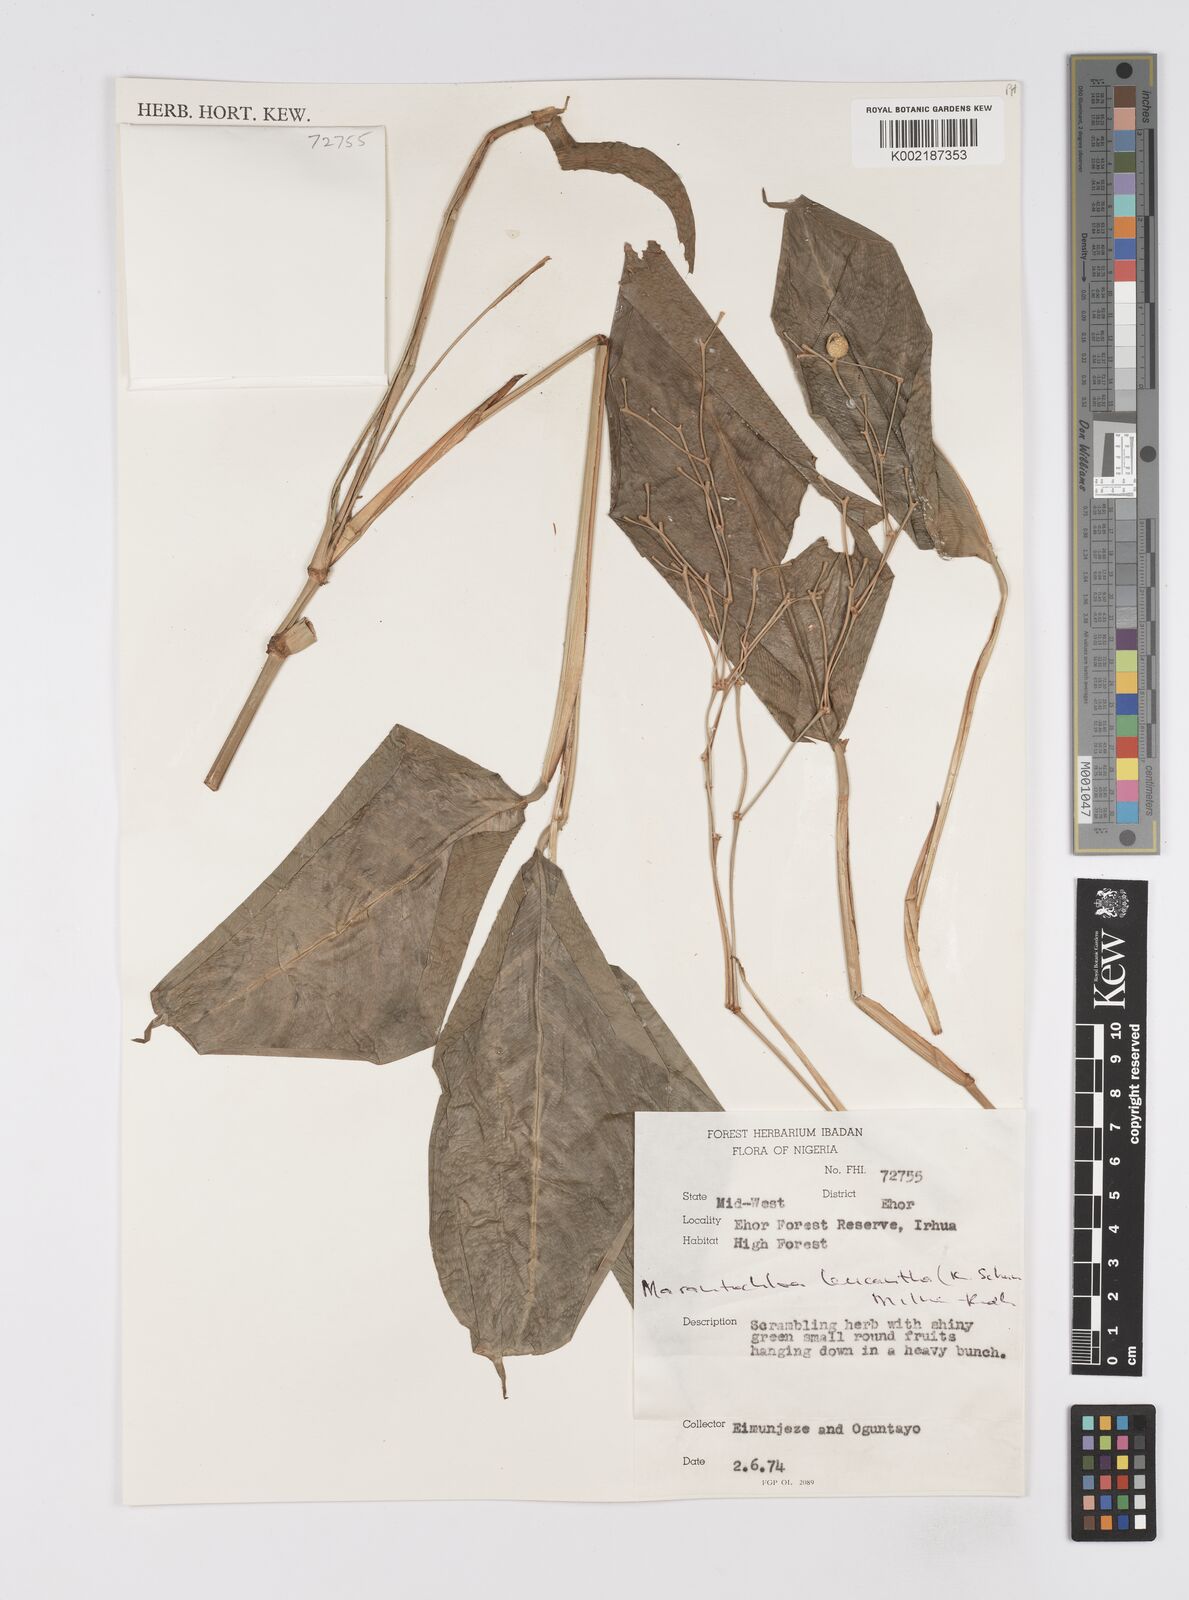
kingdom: Plantae
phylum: Tracheophyta
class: Liliopsida
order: Zingiberales
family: Marantaceae
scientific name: Marantaceae
